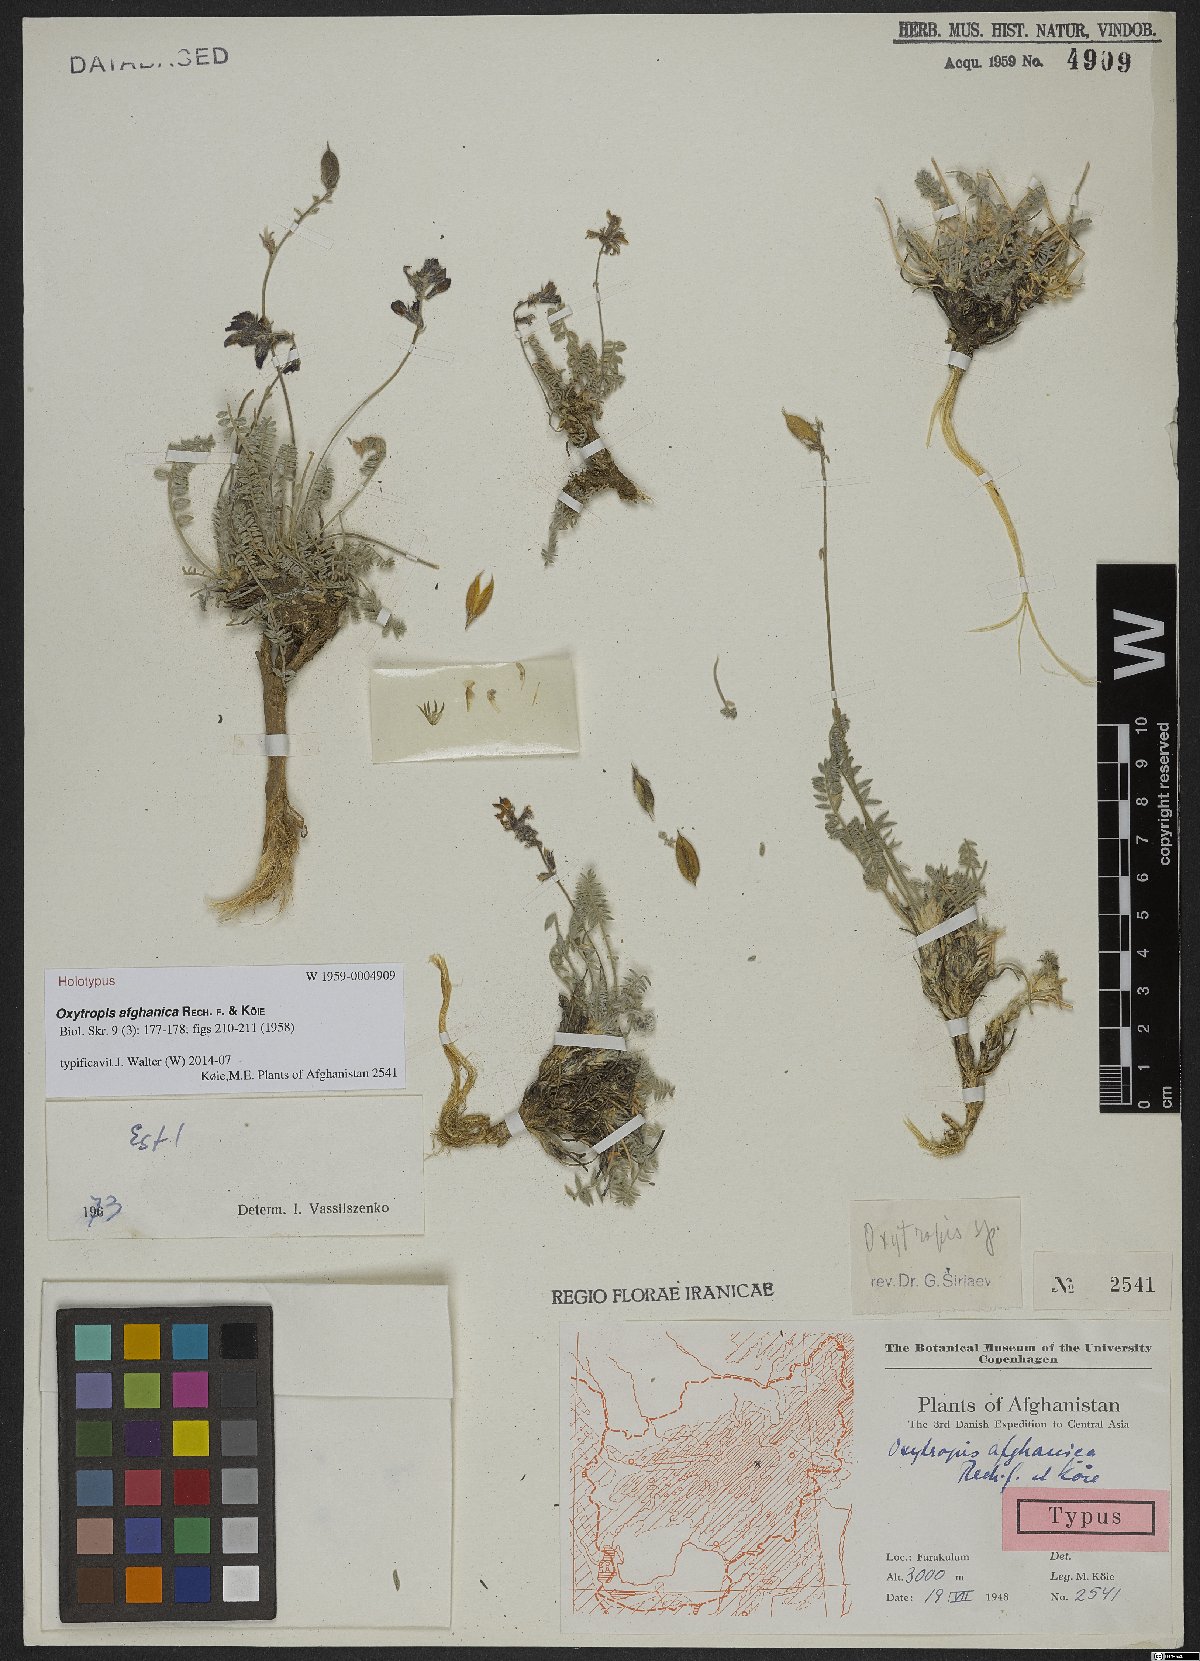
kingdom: Plantae
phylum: Tracheophyta
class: Magnoliopsida
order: Fabales
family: Fabaceae
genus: Oxytropis
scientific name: Oxytropis afghanica
